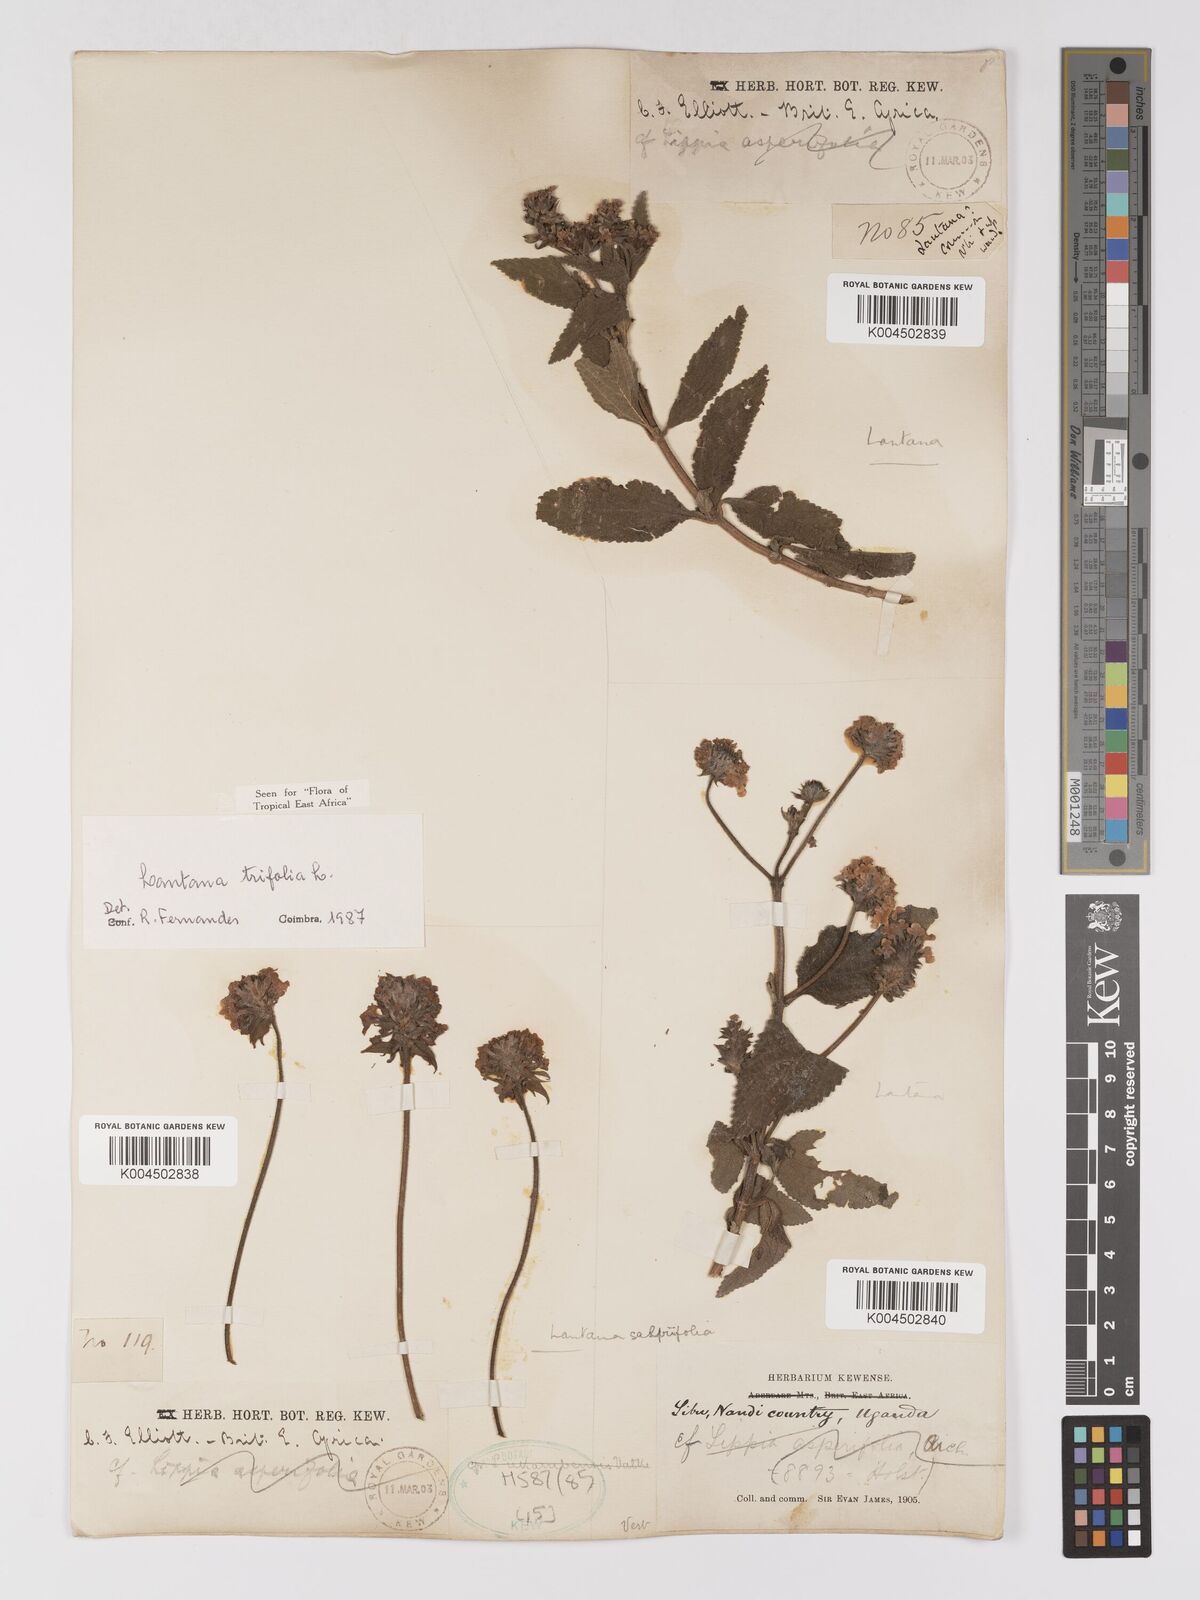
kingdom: Plantae
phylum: Tracheophyta
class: Magnoliopsida
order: Lamiales
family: Verbenaceae
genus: Lantana
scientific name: Lantana trifolia
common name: Sweet-sage
